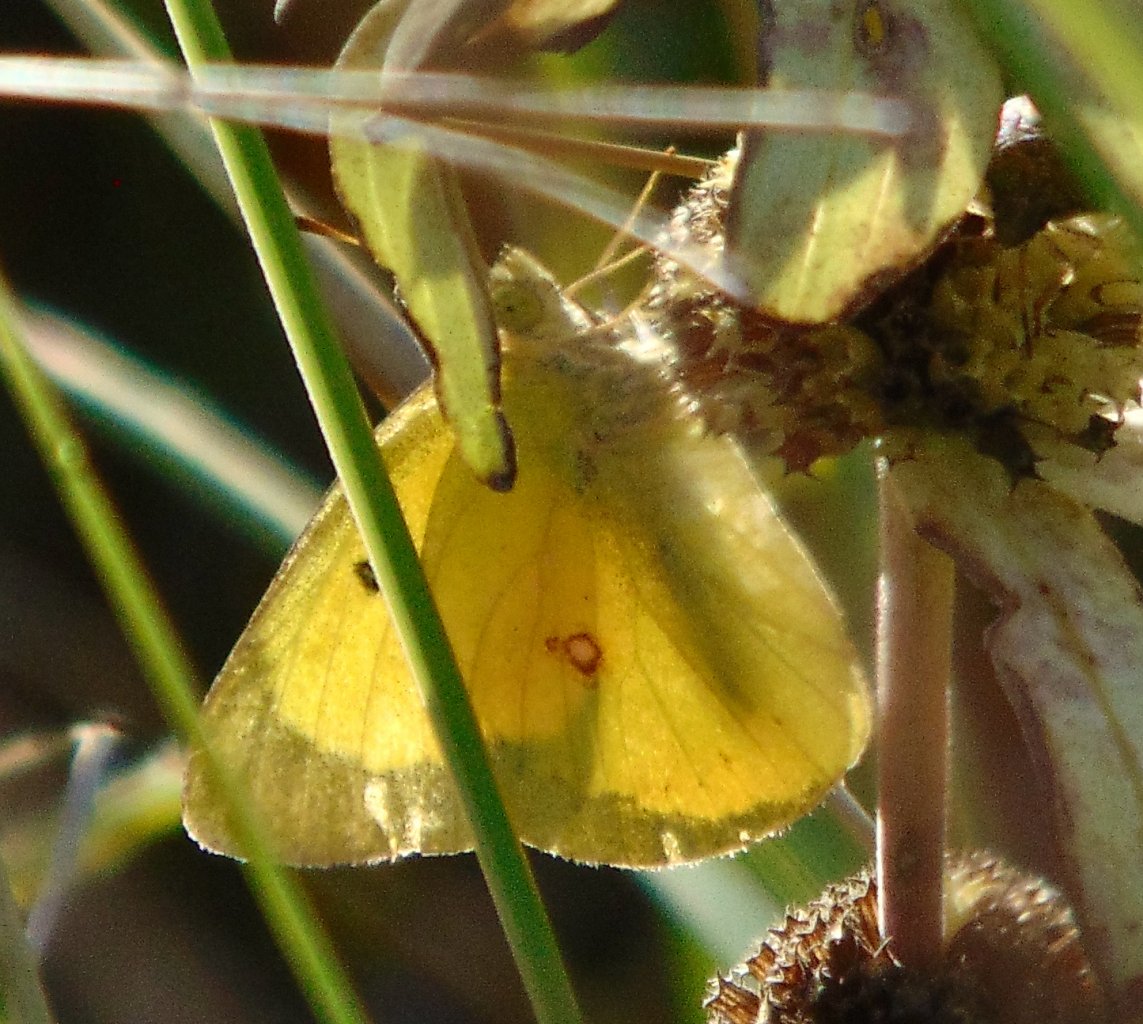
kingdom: Animalia
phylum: Arthropoda
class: Insecta
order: Lepidoptera
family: Pieridae
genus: Colias
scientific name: Colias philodice
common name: Clouded Sulphur
